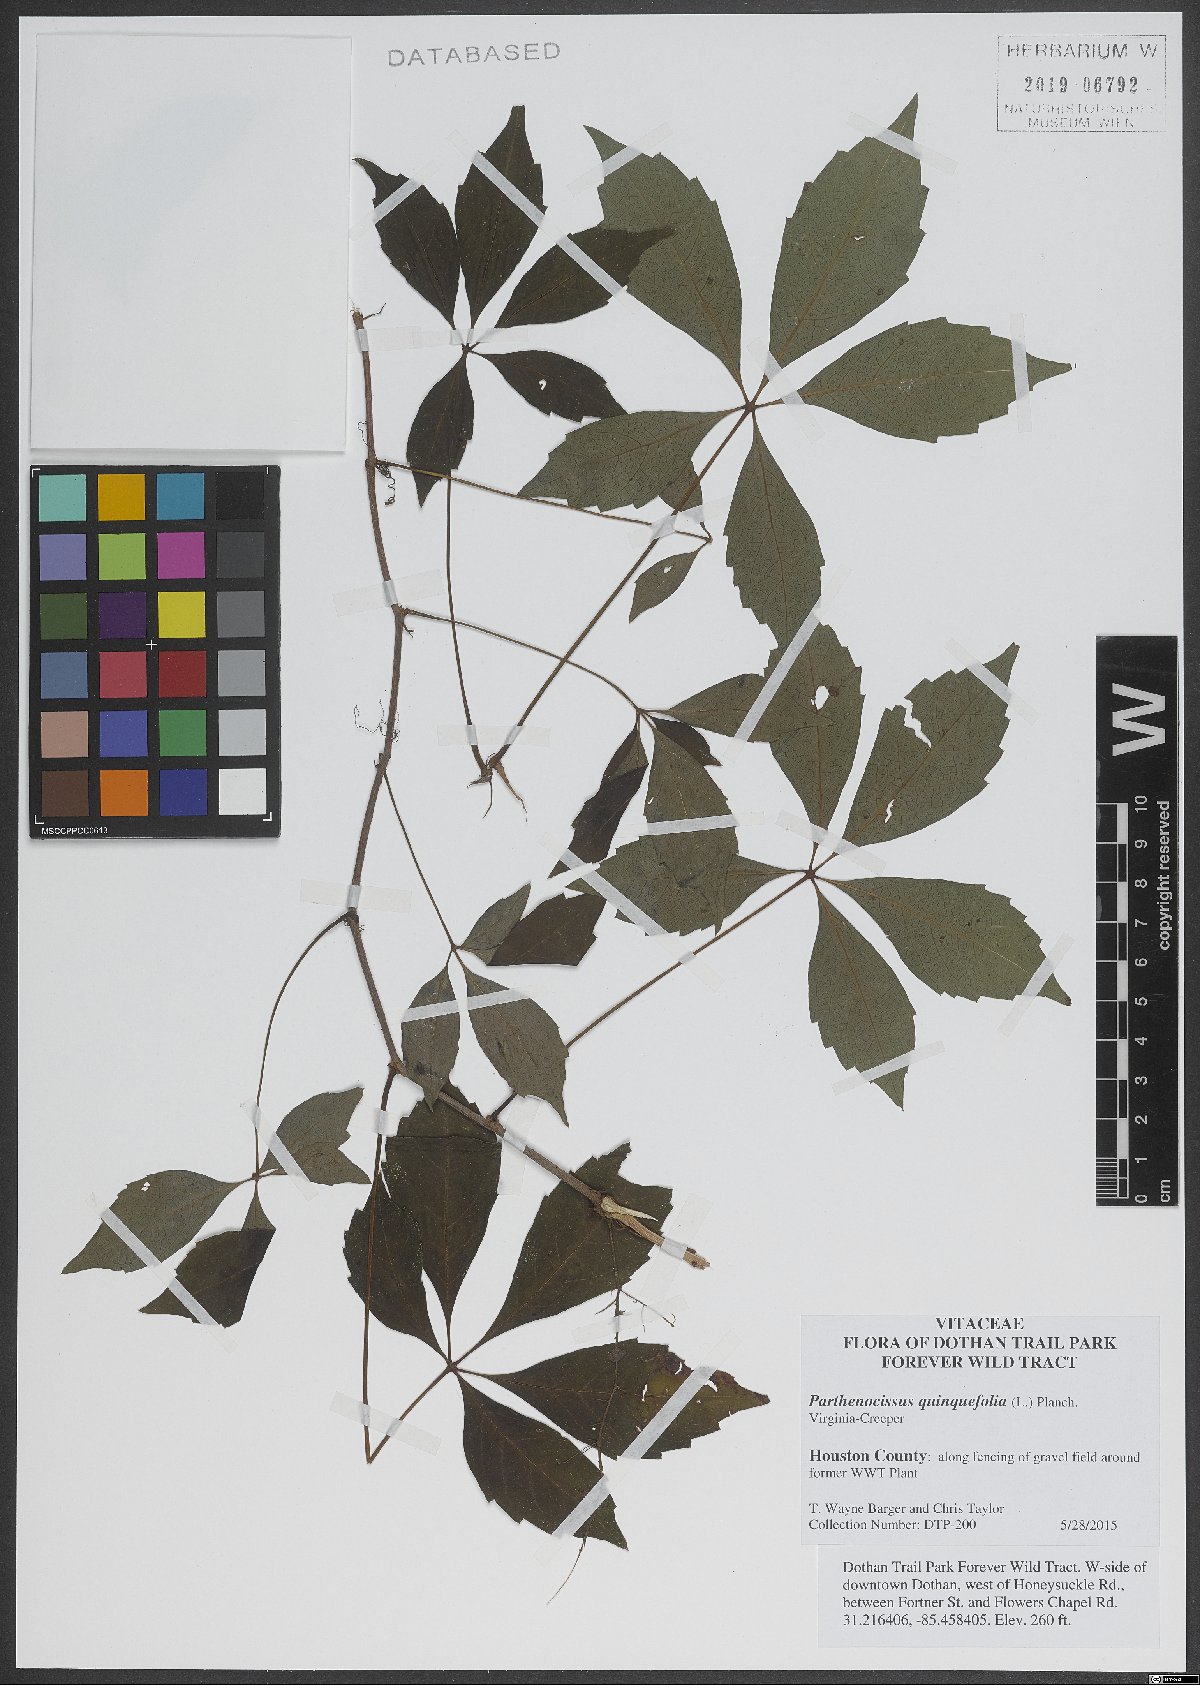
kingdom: Plantae
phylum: Tracheophyta
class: Magnoliopsida
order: Vitales
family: Vitaceae
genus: Parthenocissus
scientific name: Parthenocissus quinquefolia
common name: Virginia-creeper
